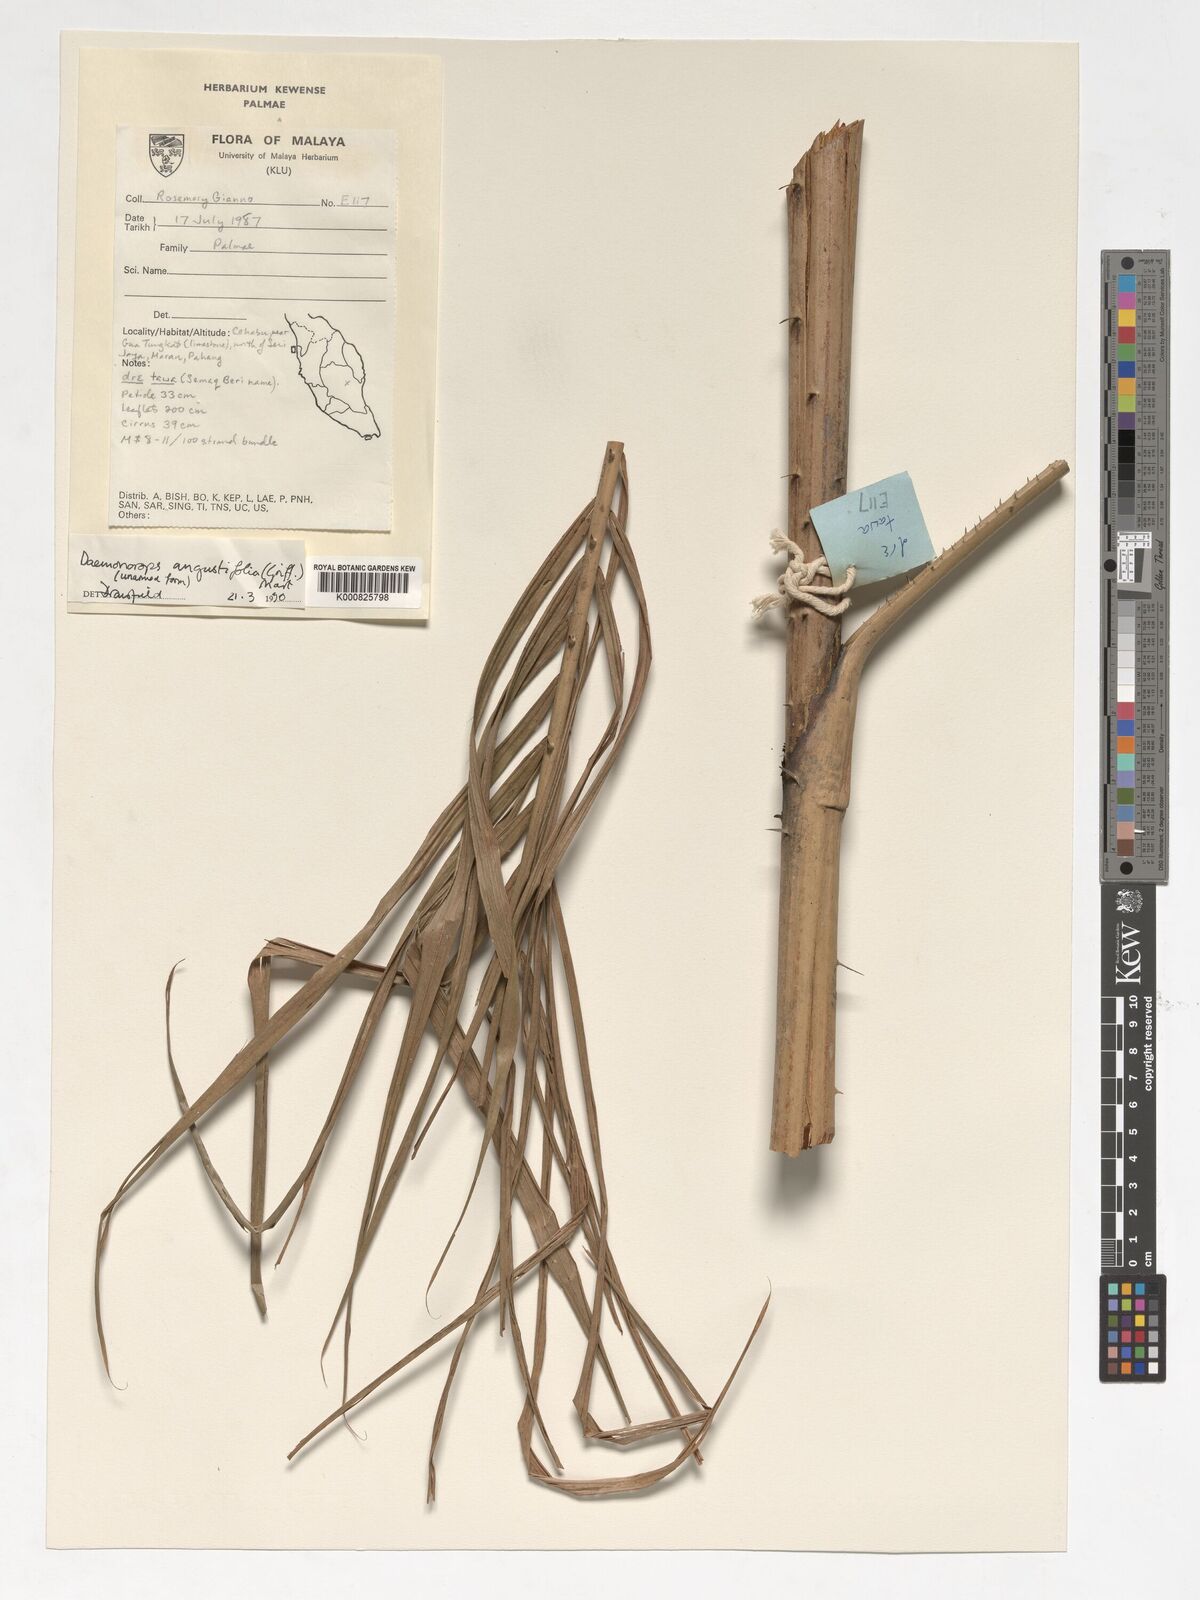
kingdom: Plantae
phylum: Tracheophyta
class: Liliopsida
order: Arecales
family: Arecaceae
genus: Calamus
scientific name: Calamus melanochaetes
